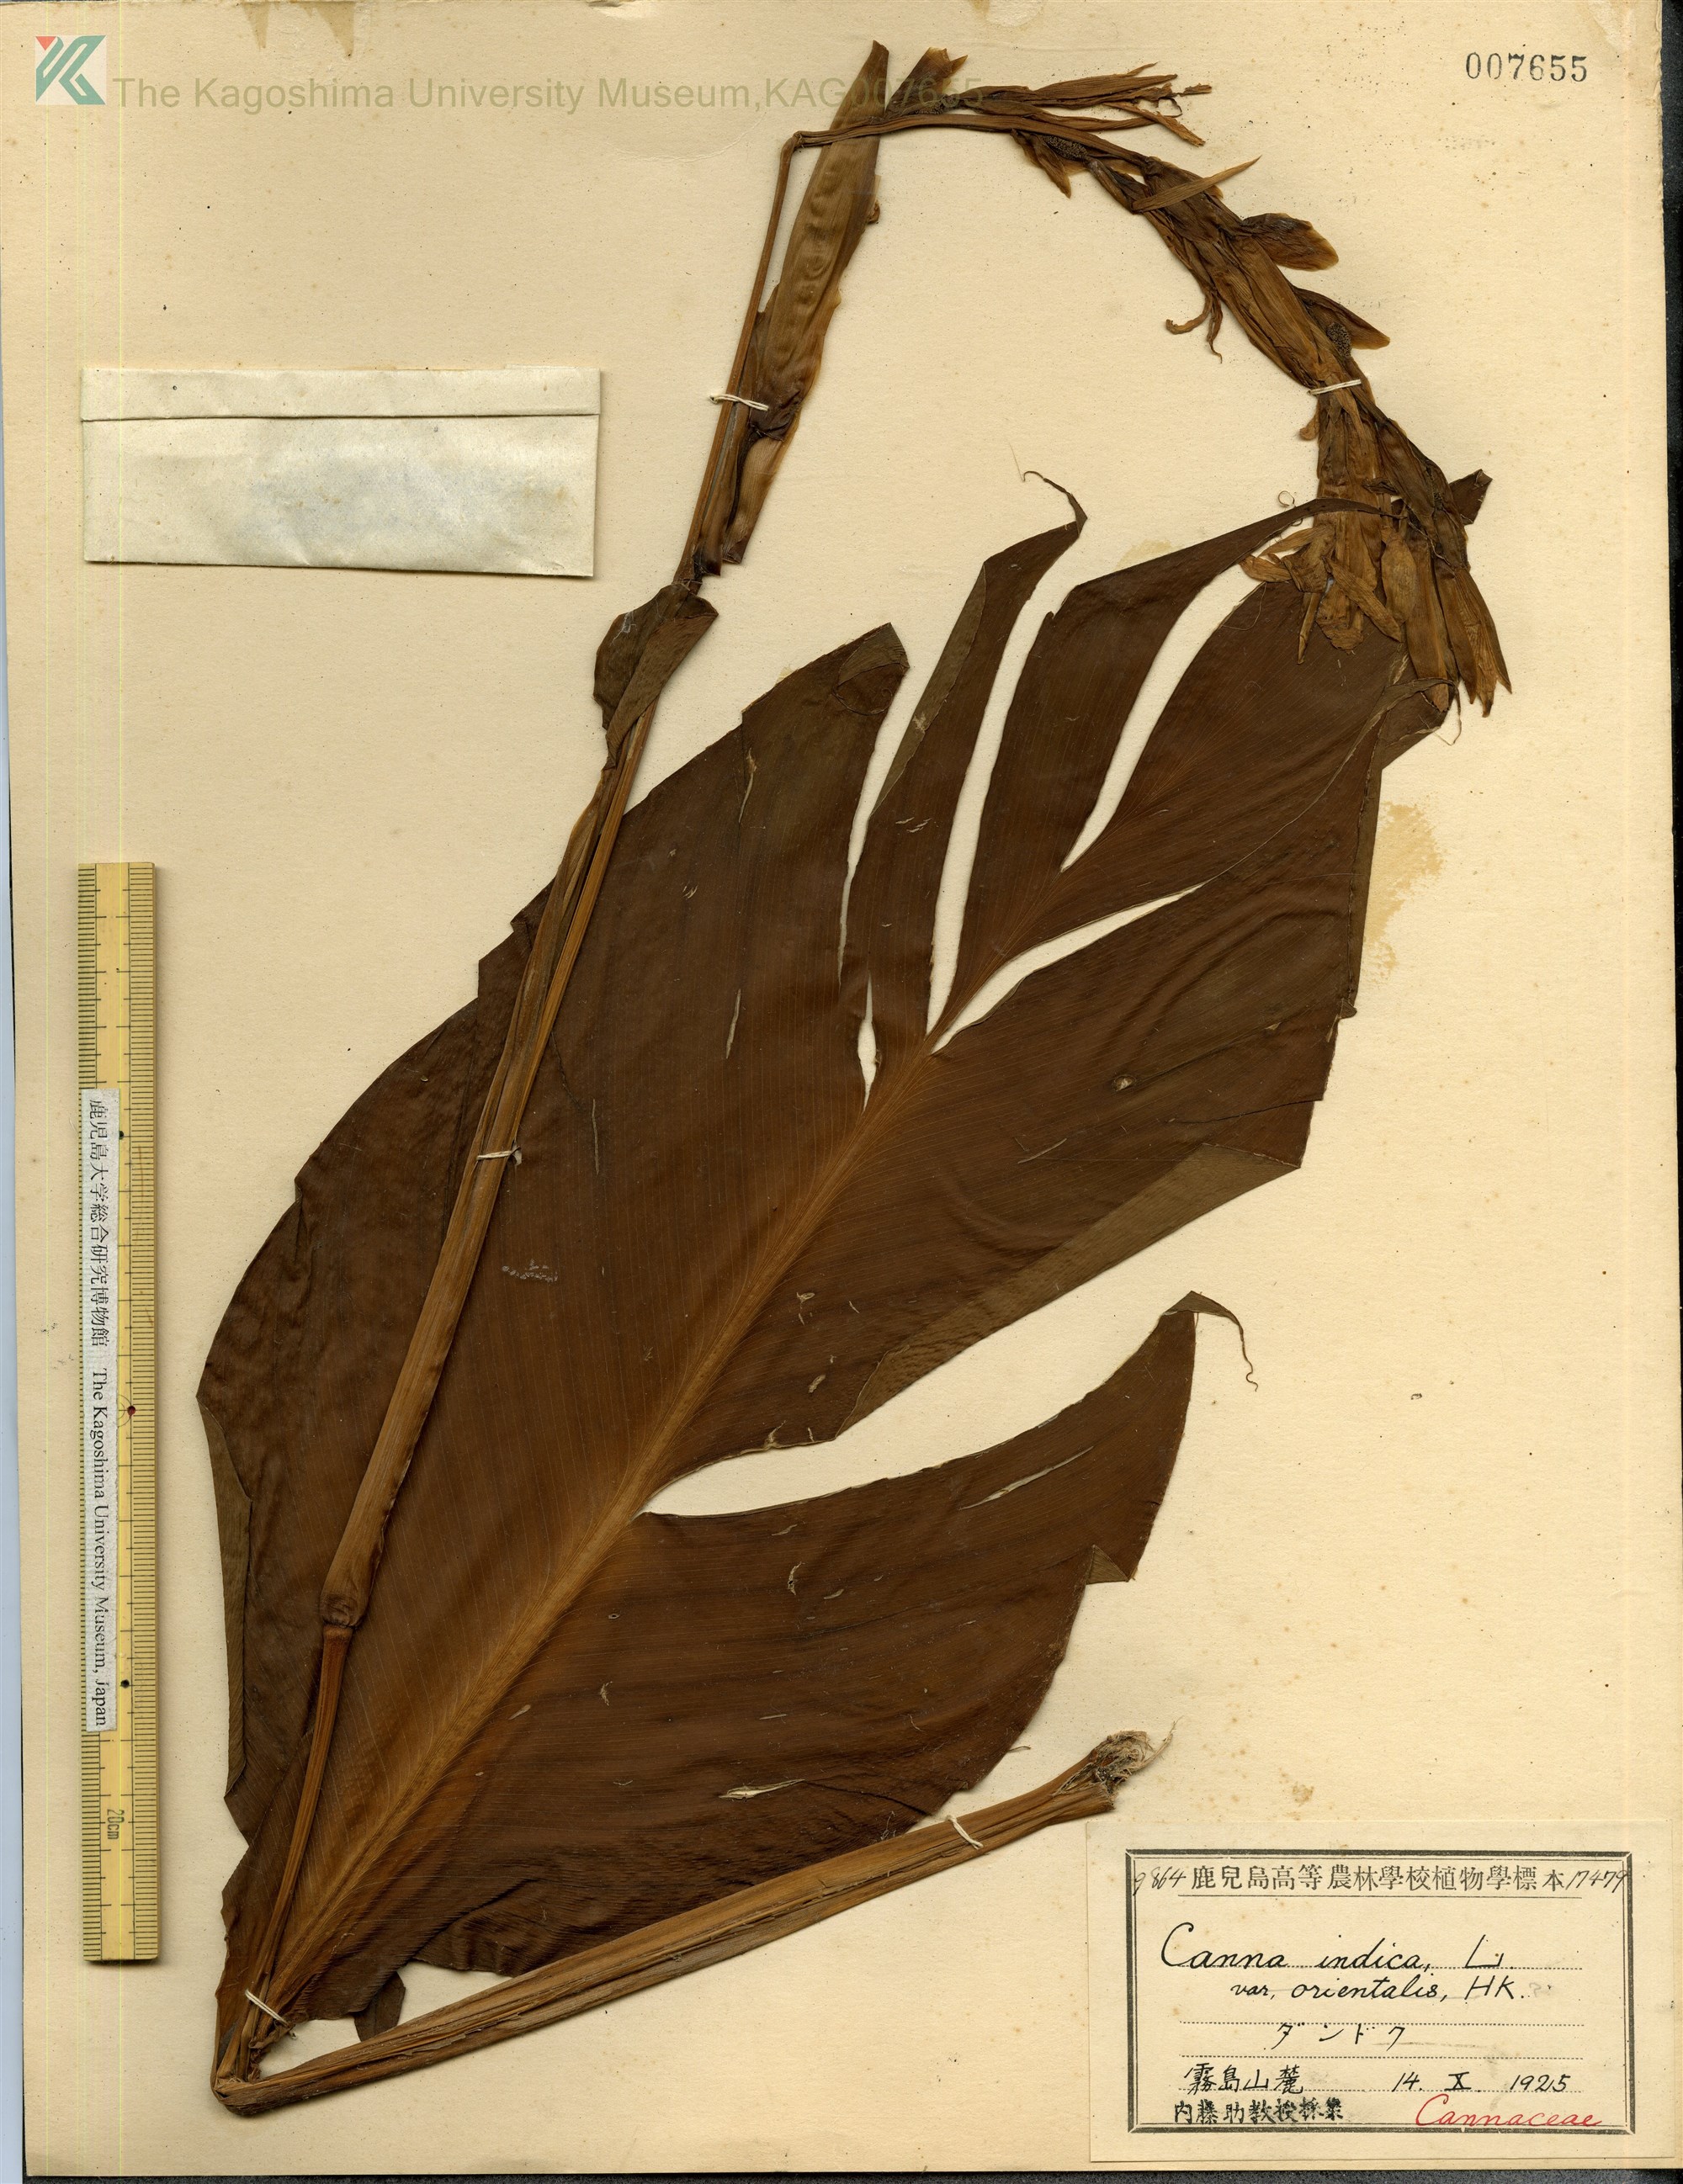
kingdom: Plantae
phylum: Tracheophyta
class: Liliopsida
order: Zingiberales
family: Cannaceae
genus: Canna
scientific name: Canna indica
